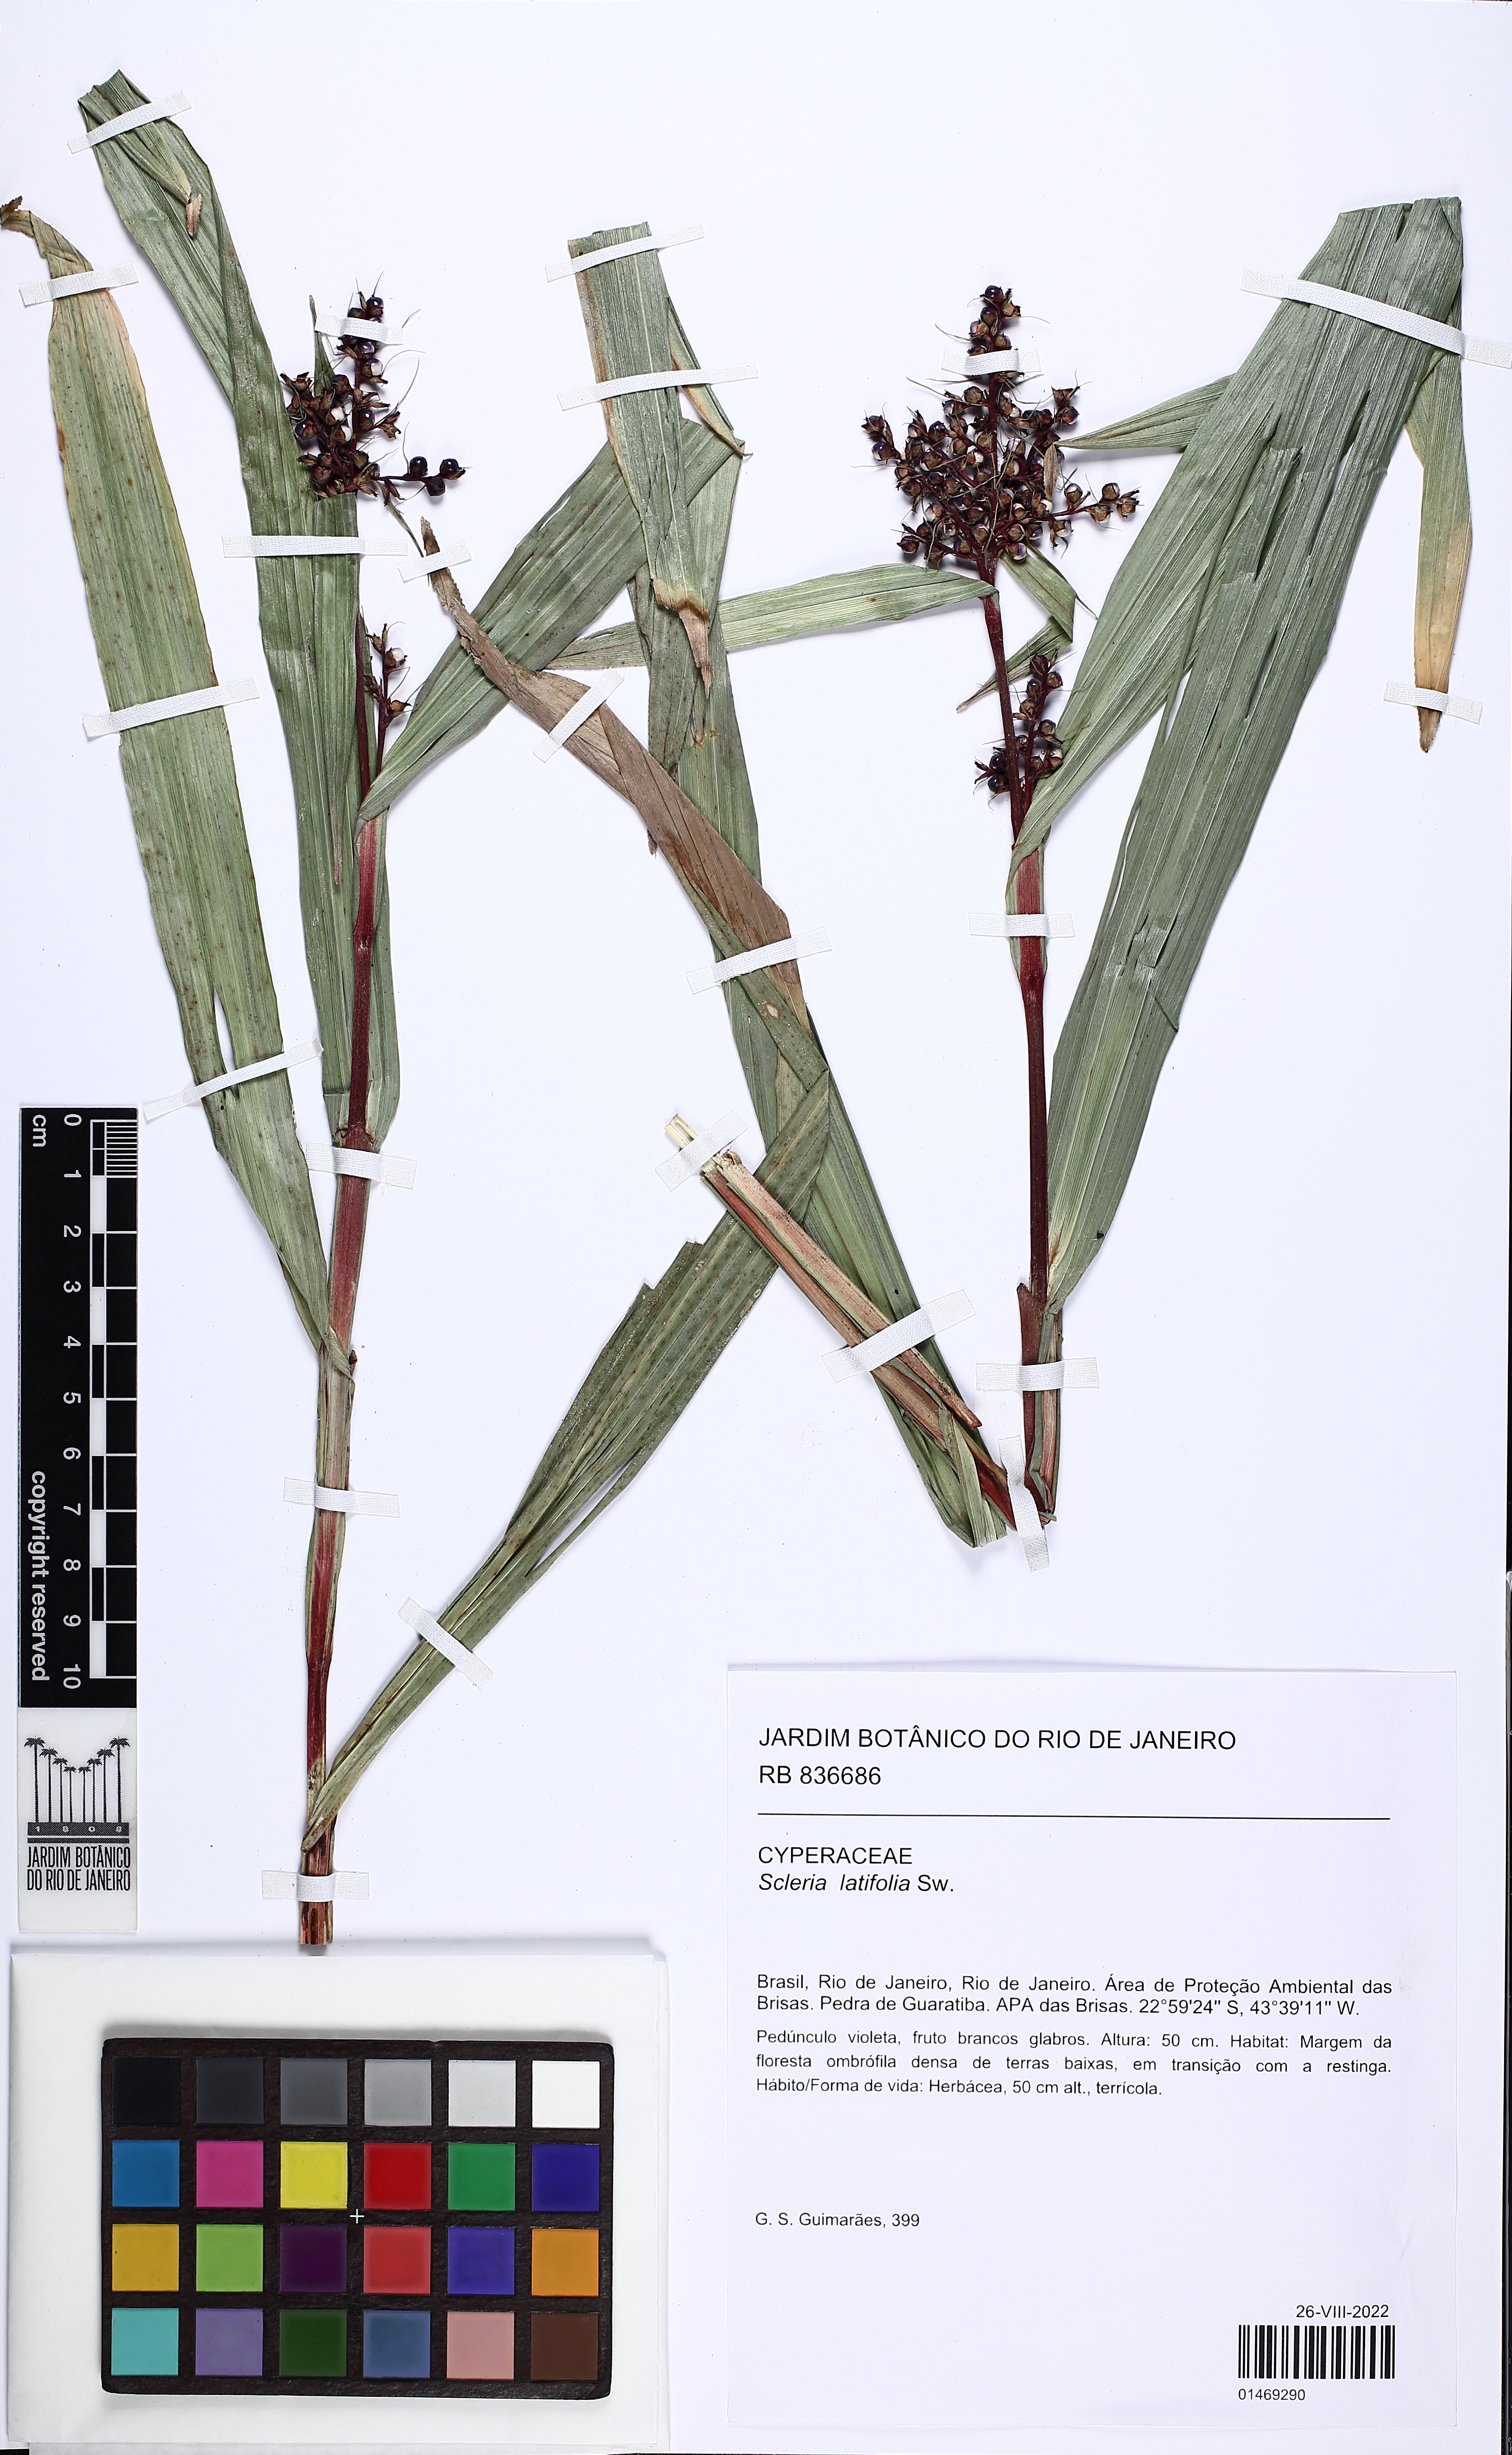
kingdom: Plantae
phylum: Tracheophyta
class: Liliopsida
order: Poales
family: Cyperaceae
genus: Scleria
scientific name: Scleria latifolia
